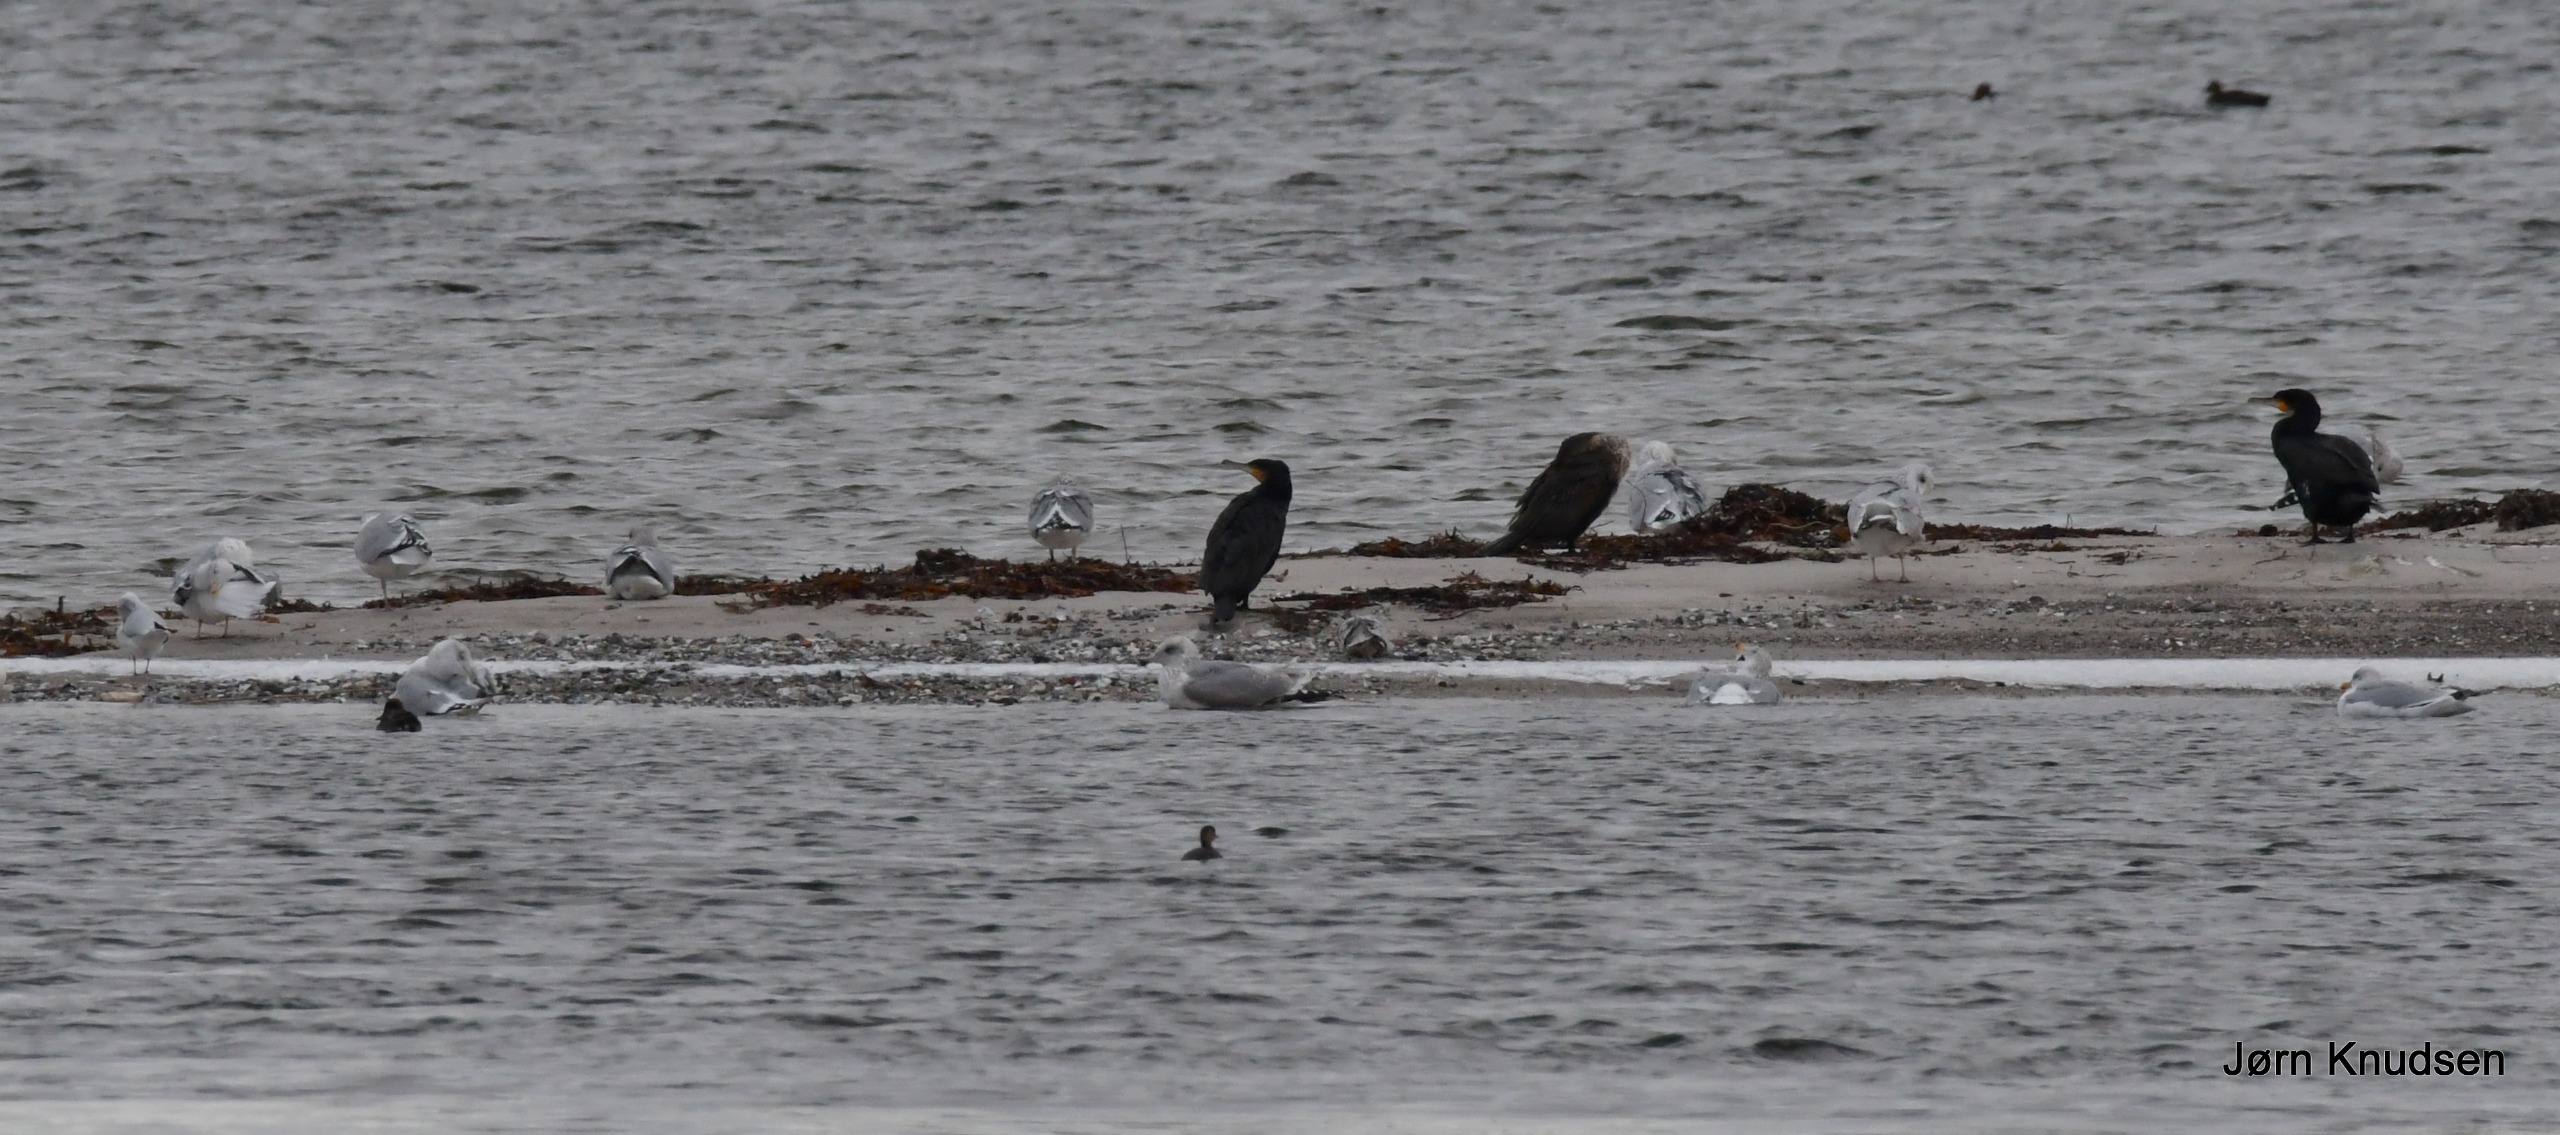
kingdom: Animalia
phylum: Chordata
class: Aves
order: Charadriiformes
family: Laridae
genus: Chroicocephalus
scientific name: Chroicocephalus ridibundus
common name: Hættemåge
